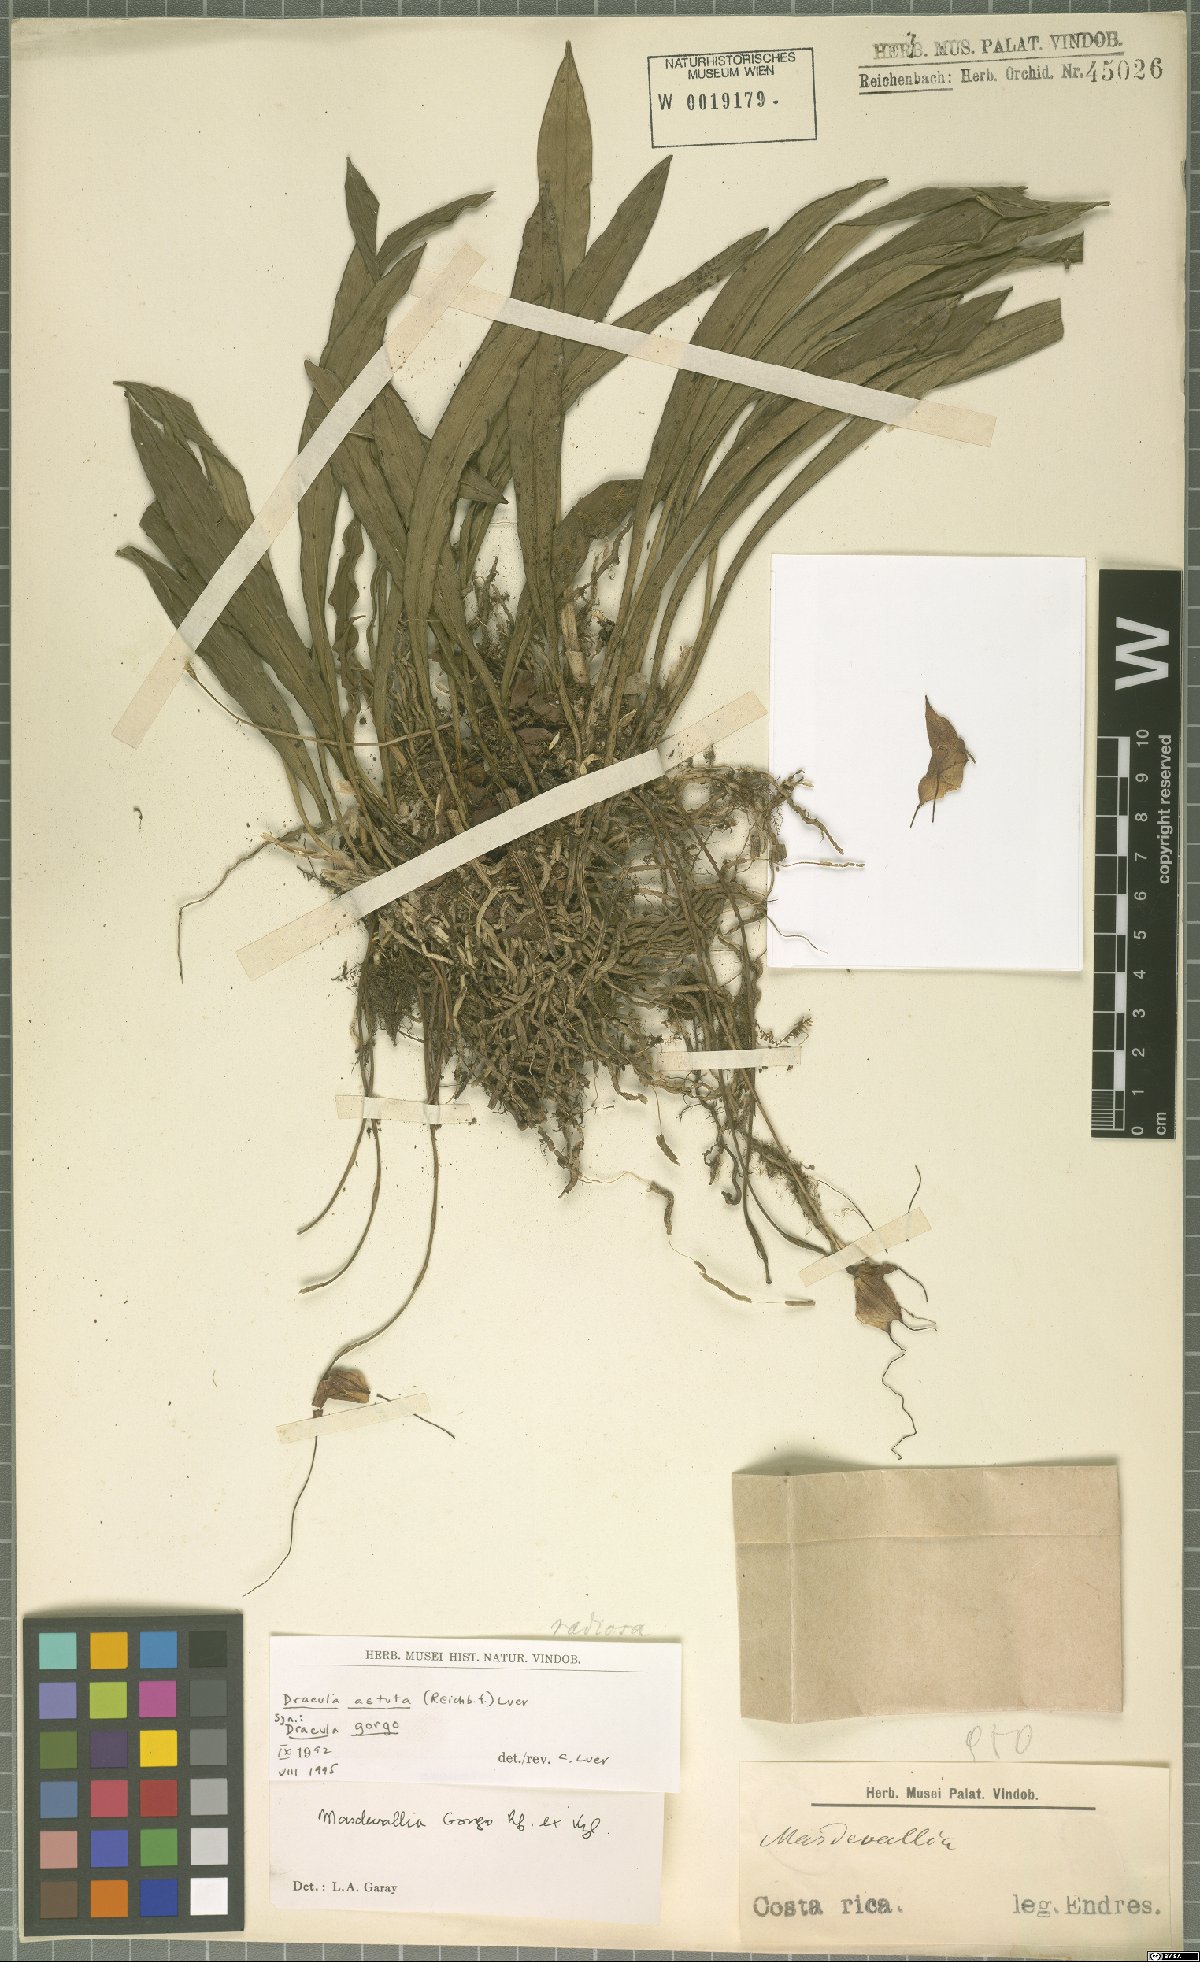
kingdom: Plantae
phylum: Tracheophyta
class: Liliopsida
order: Asparagales
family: Orchidaceae
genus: Dracula
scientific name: Dracula astuta
